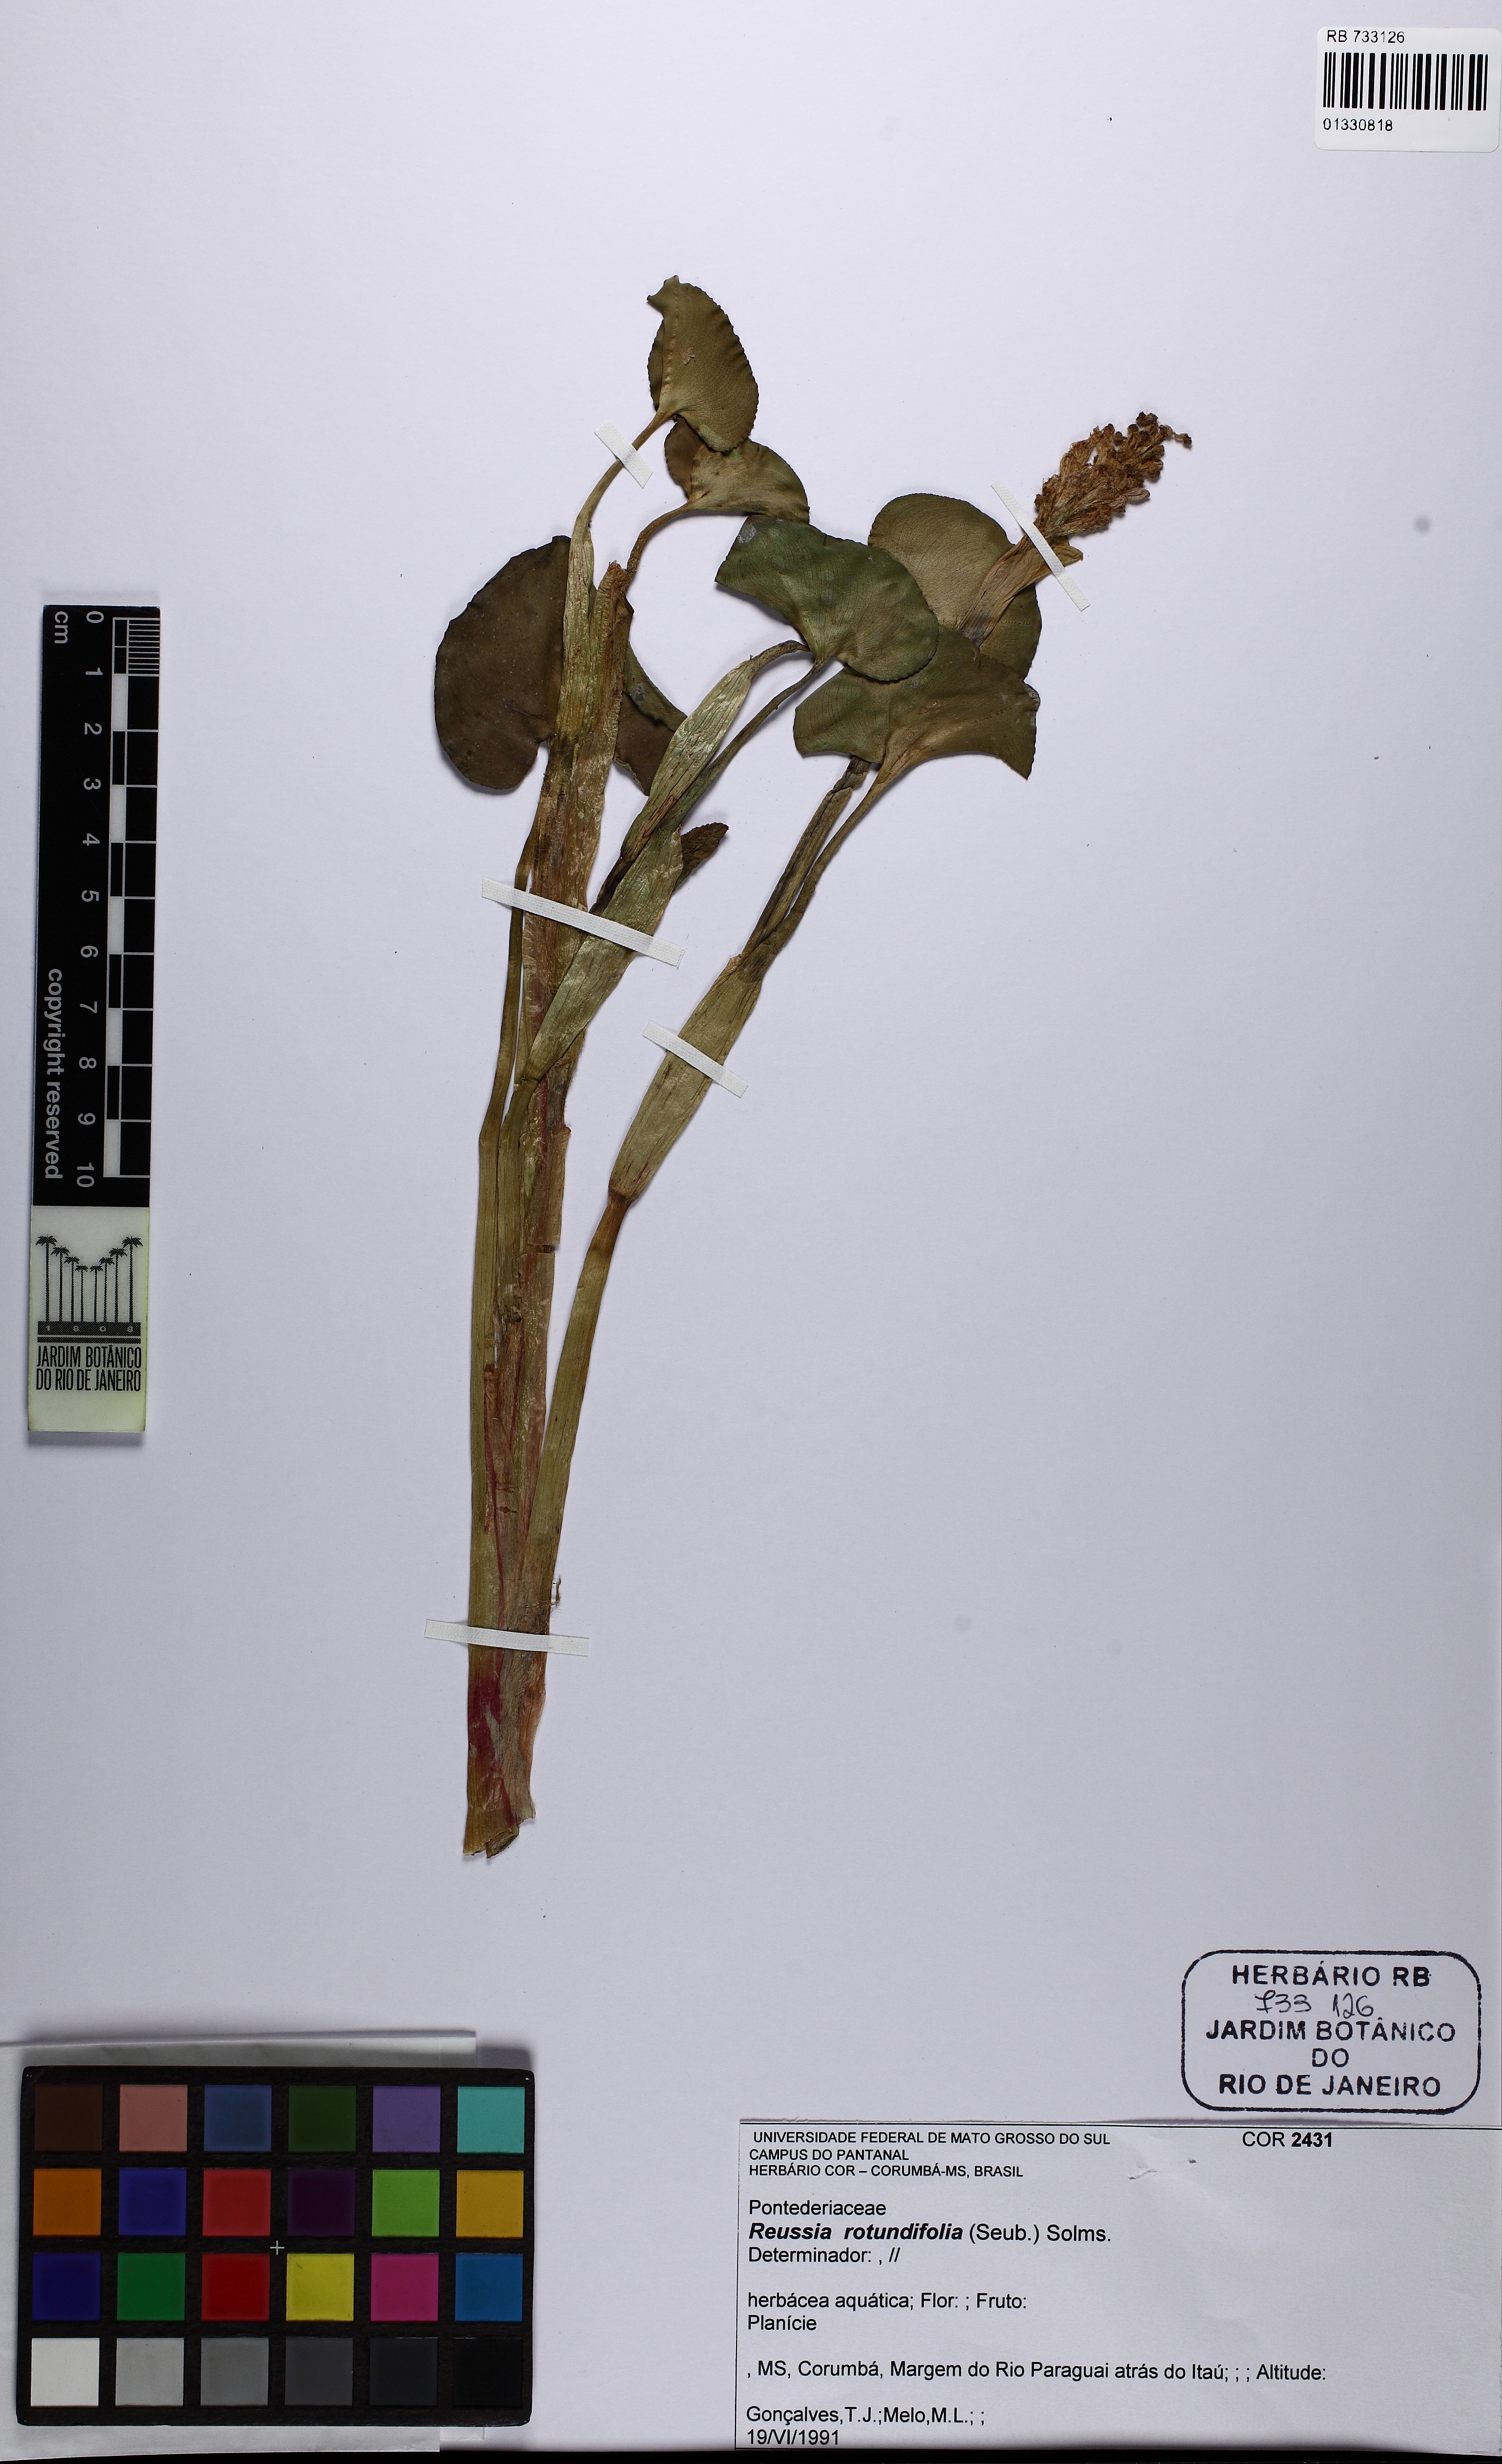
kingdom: Plantae
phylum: Tracheophyta
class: Liliopsida
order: Commelinales
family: Pontederiaceae
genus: Pontederia
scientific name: Pontederia rotundifolia
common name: Tropical pickerel-weed
